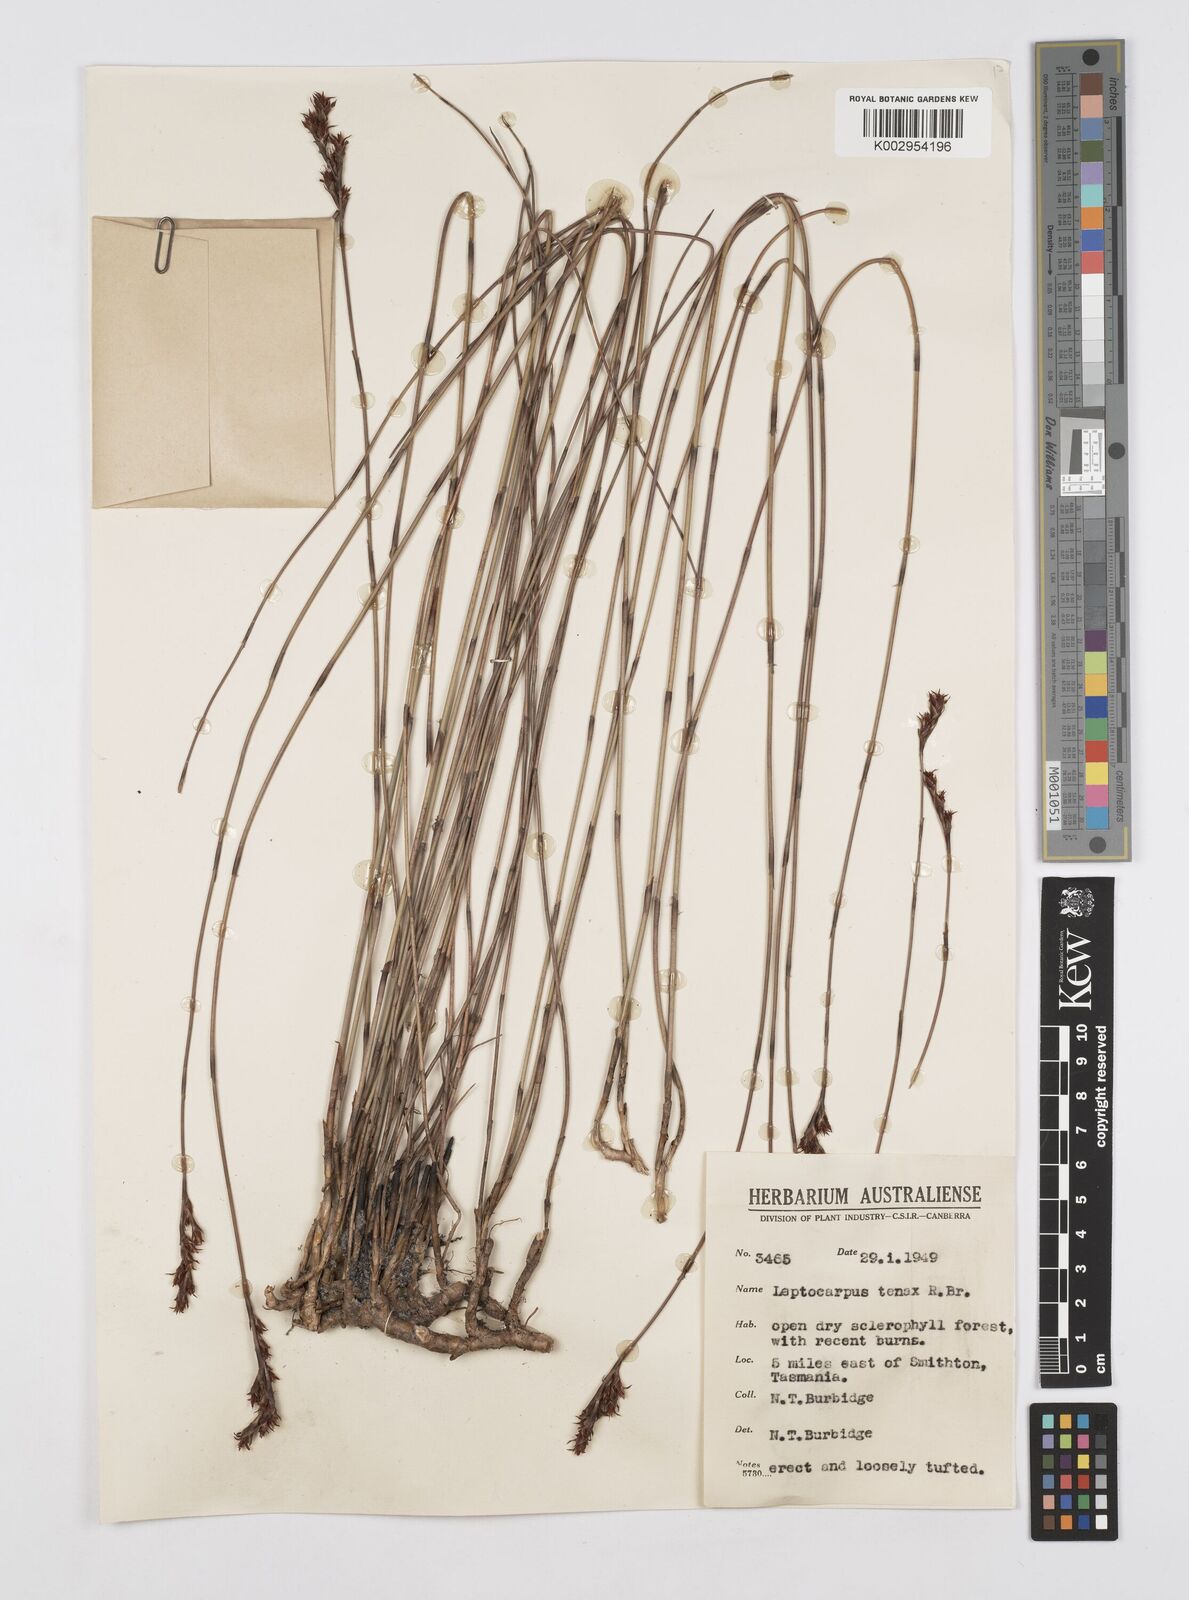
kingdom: Plantae
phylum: Tracheophyta
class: Liliopsida
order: Poales
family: Restionaceae
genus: Leptocarpus
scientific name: Leptocarpus tenax
